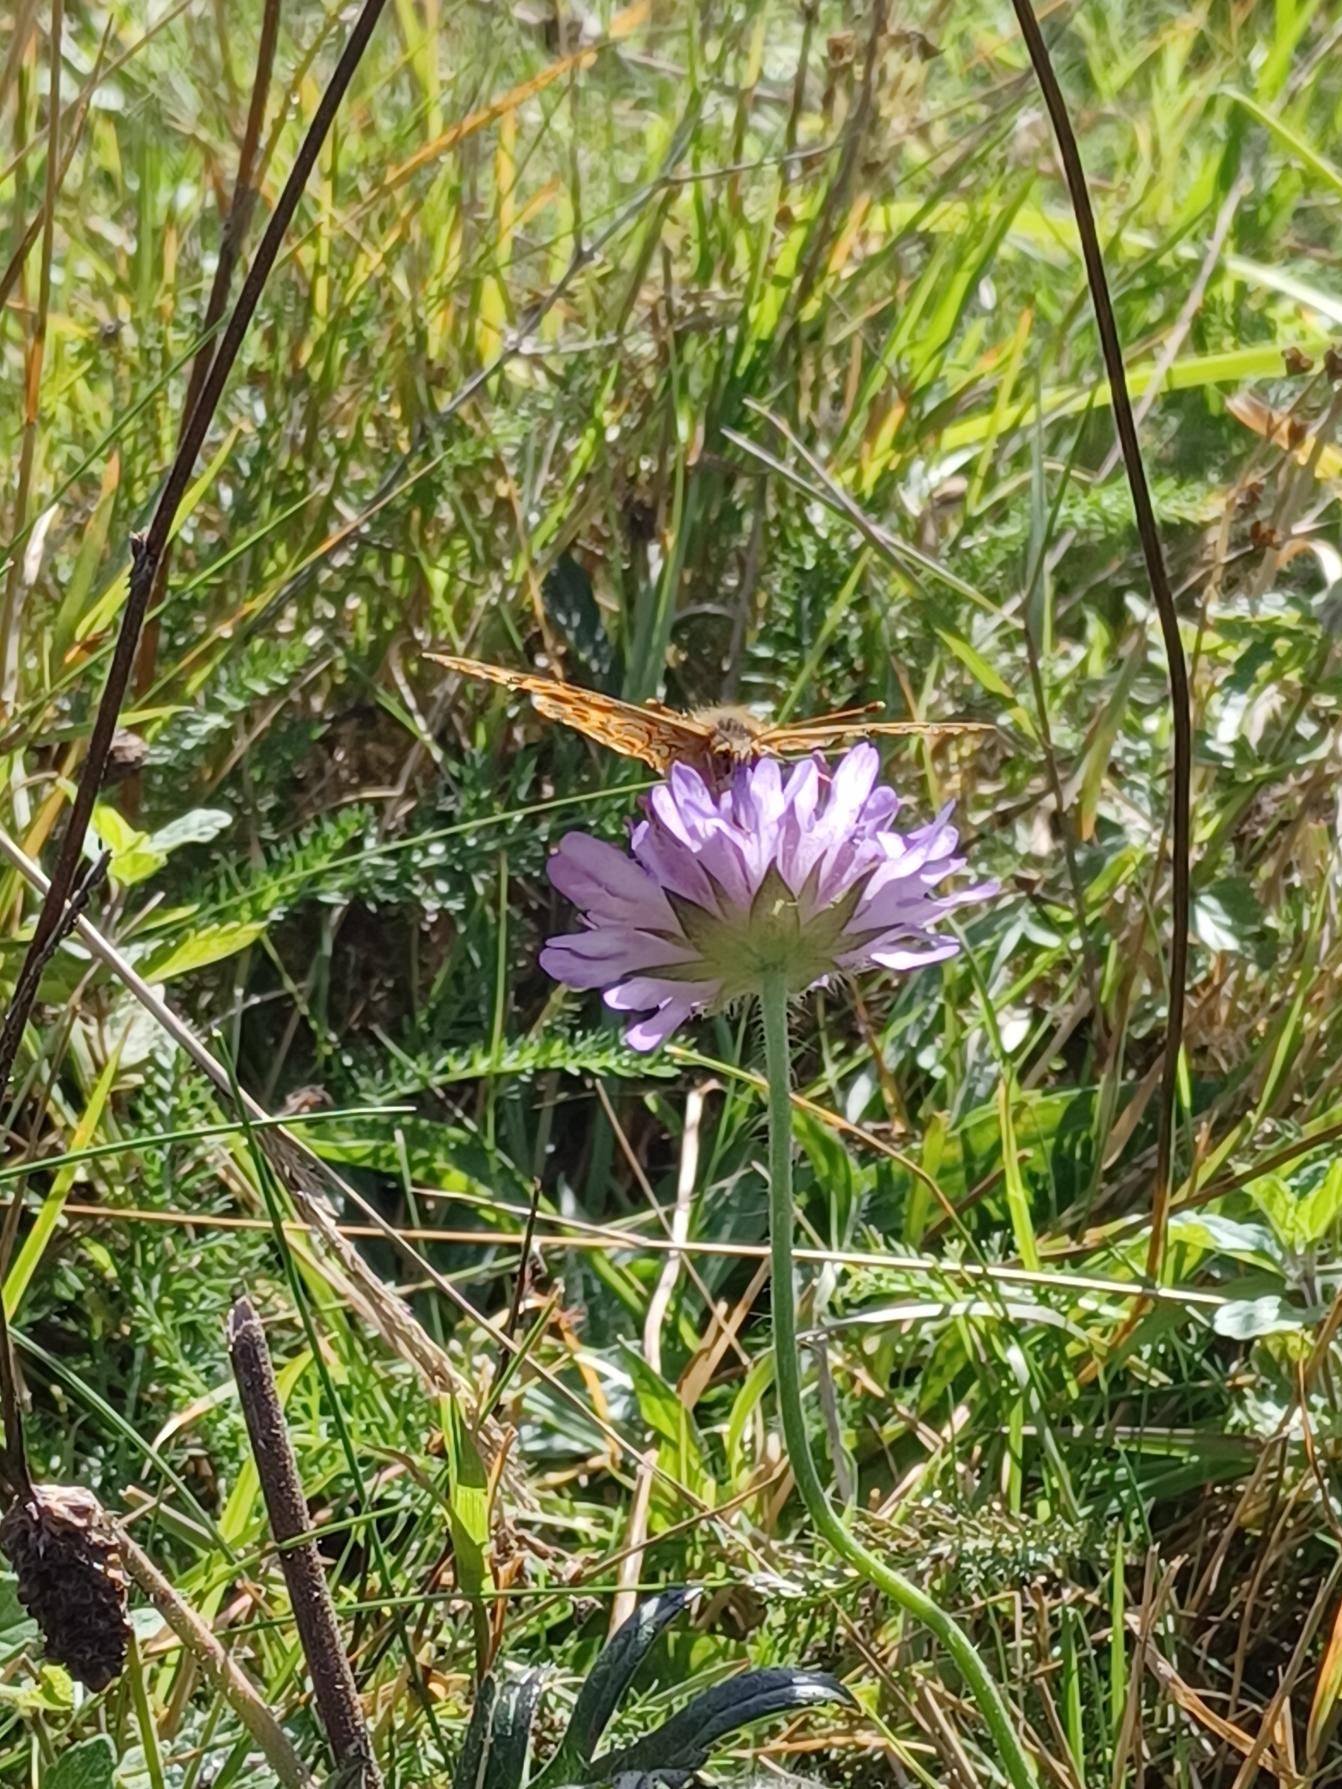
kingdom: Animalia
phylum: Arthropoda
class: Insecta
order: Lepidoptera
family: Nymphalidae
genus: Issoria
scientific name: Issoria lathonia
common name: Storplettet perlemorsommerfugl
